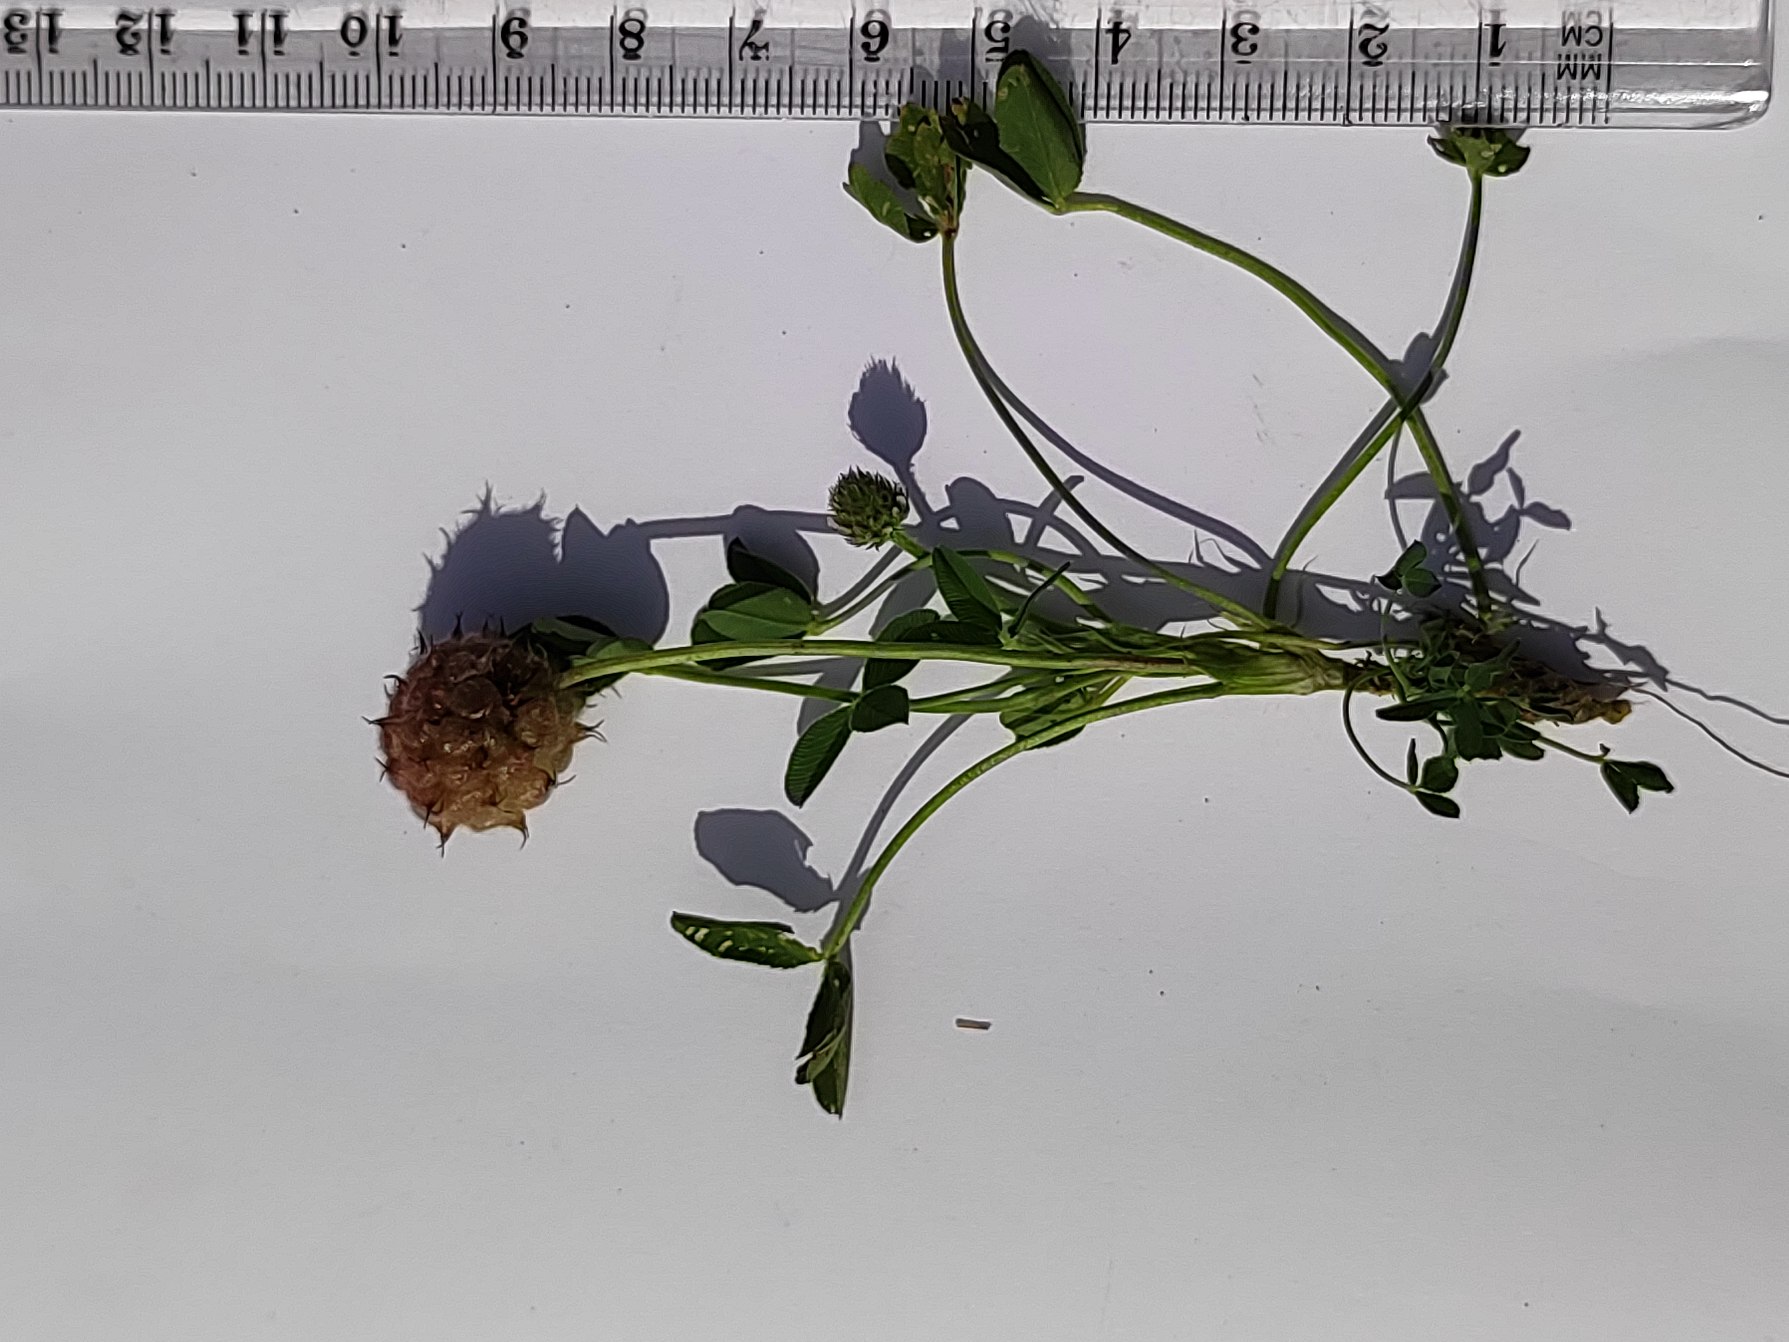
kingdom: Plantae
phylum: Tracheophyta
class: Magnoliopsida
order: Fabales
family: Fabaceae
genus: Trifolium
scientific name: Trifolium fragiferum
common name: Jordbær-kløver
